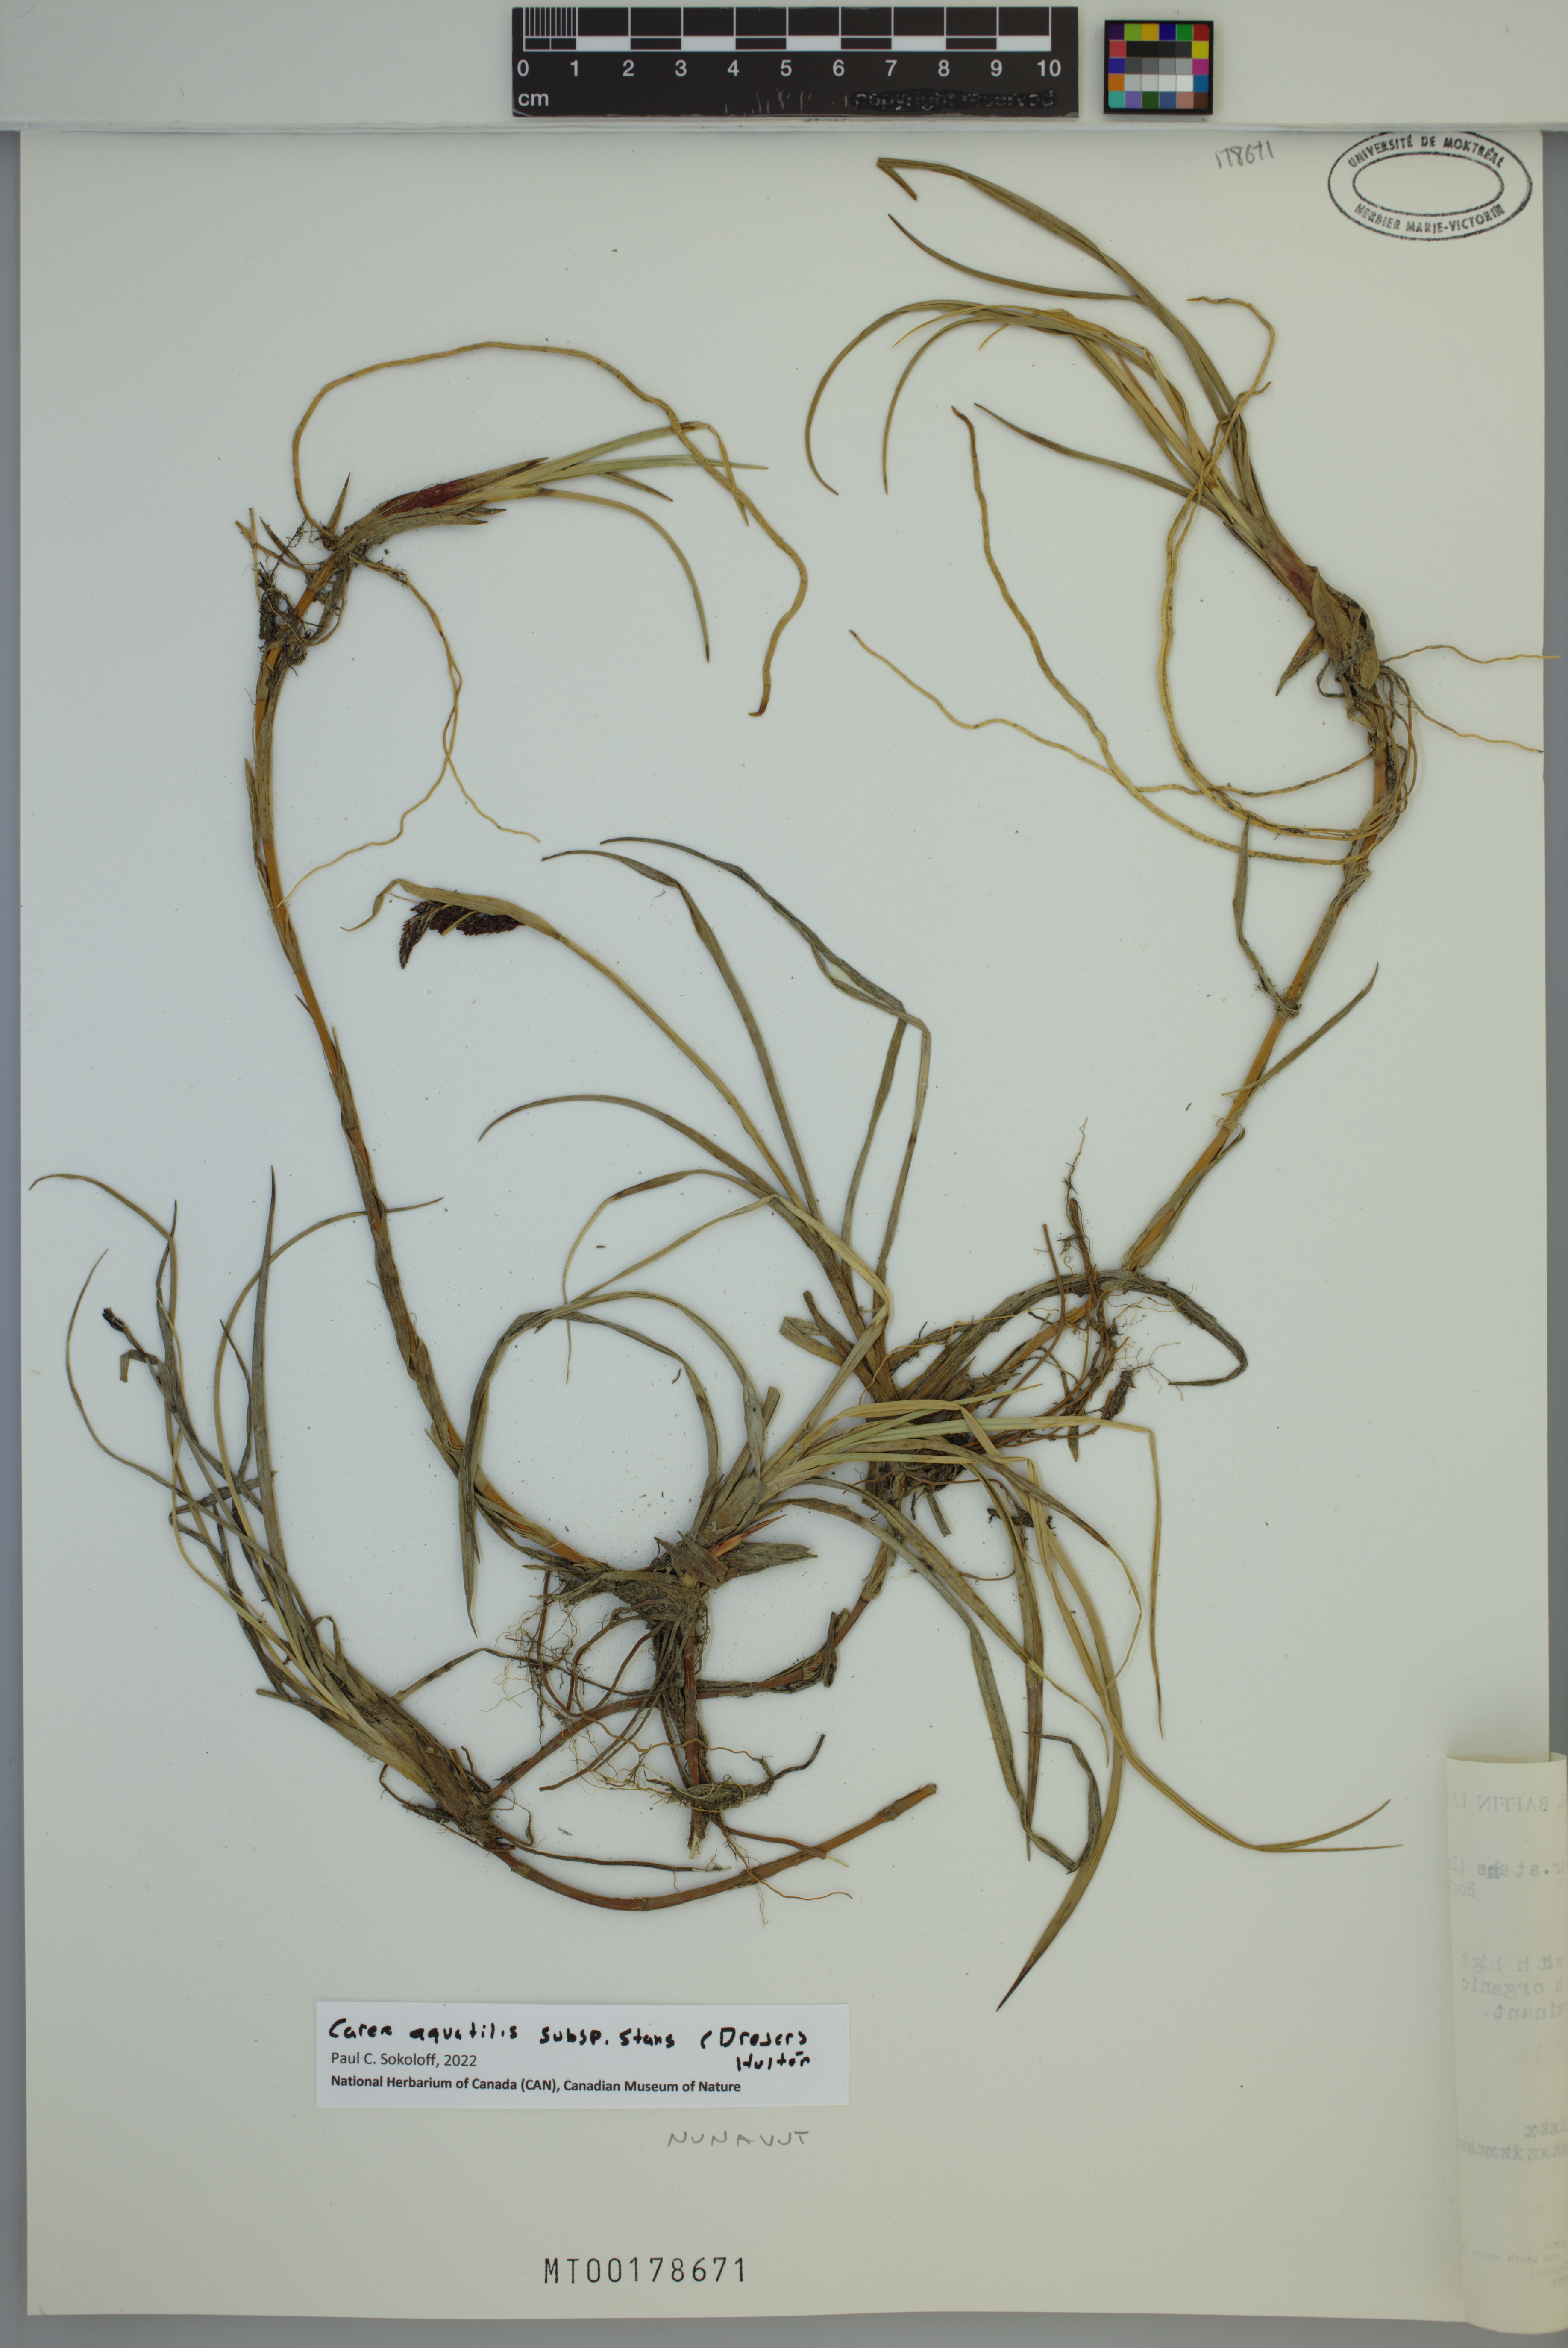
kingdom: Plantae
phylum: Tracheophyta
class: Liliopsida
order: Poales
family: Cyperaceae
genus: Carex
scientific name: Carex aquatilis
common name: Water sedge
